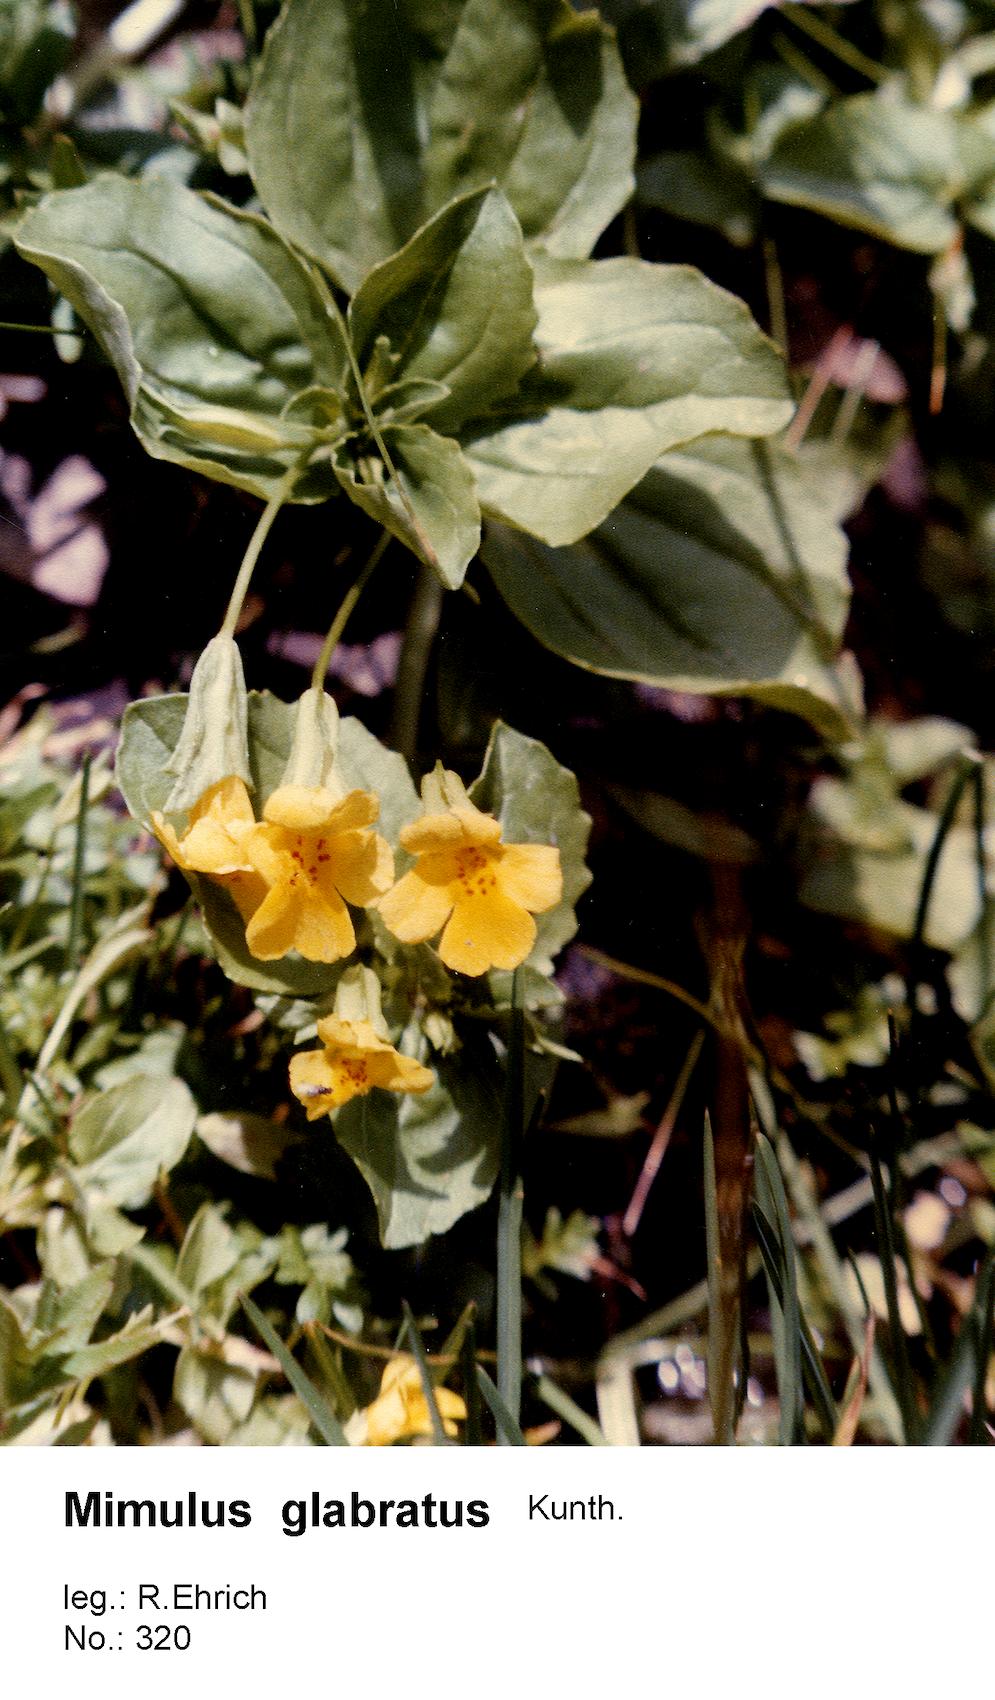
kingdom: Plantae
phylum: Tracheophyta
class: Magnoliopsida
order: Lamiales
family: Phrymaceae
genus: Erythranthe
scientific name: Erythranthe glabrata
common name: Round-leaved monkeyflower
